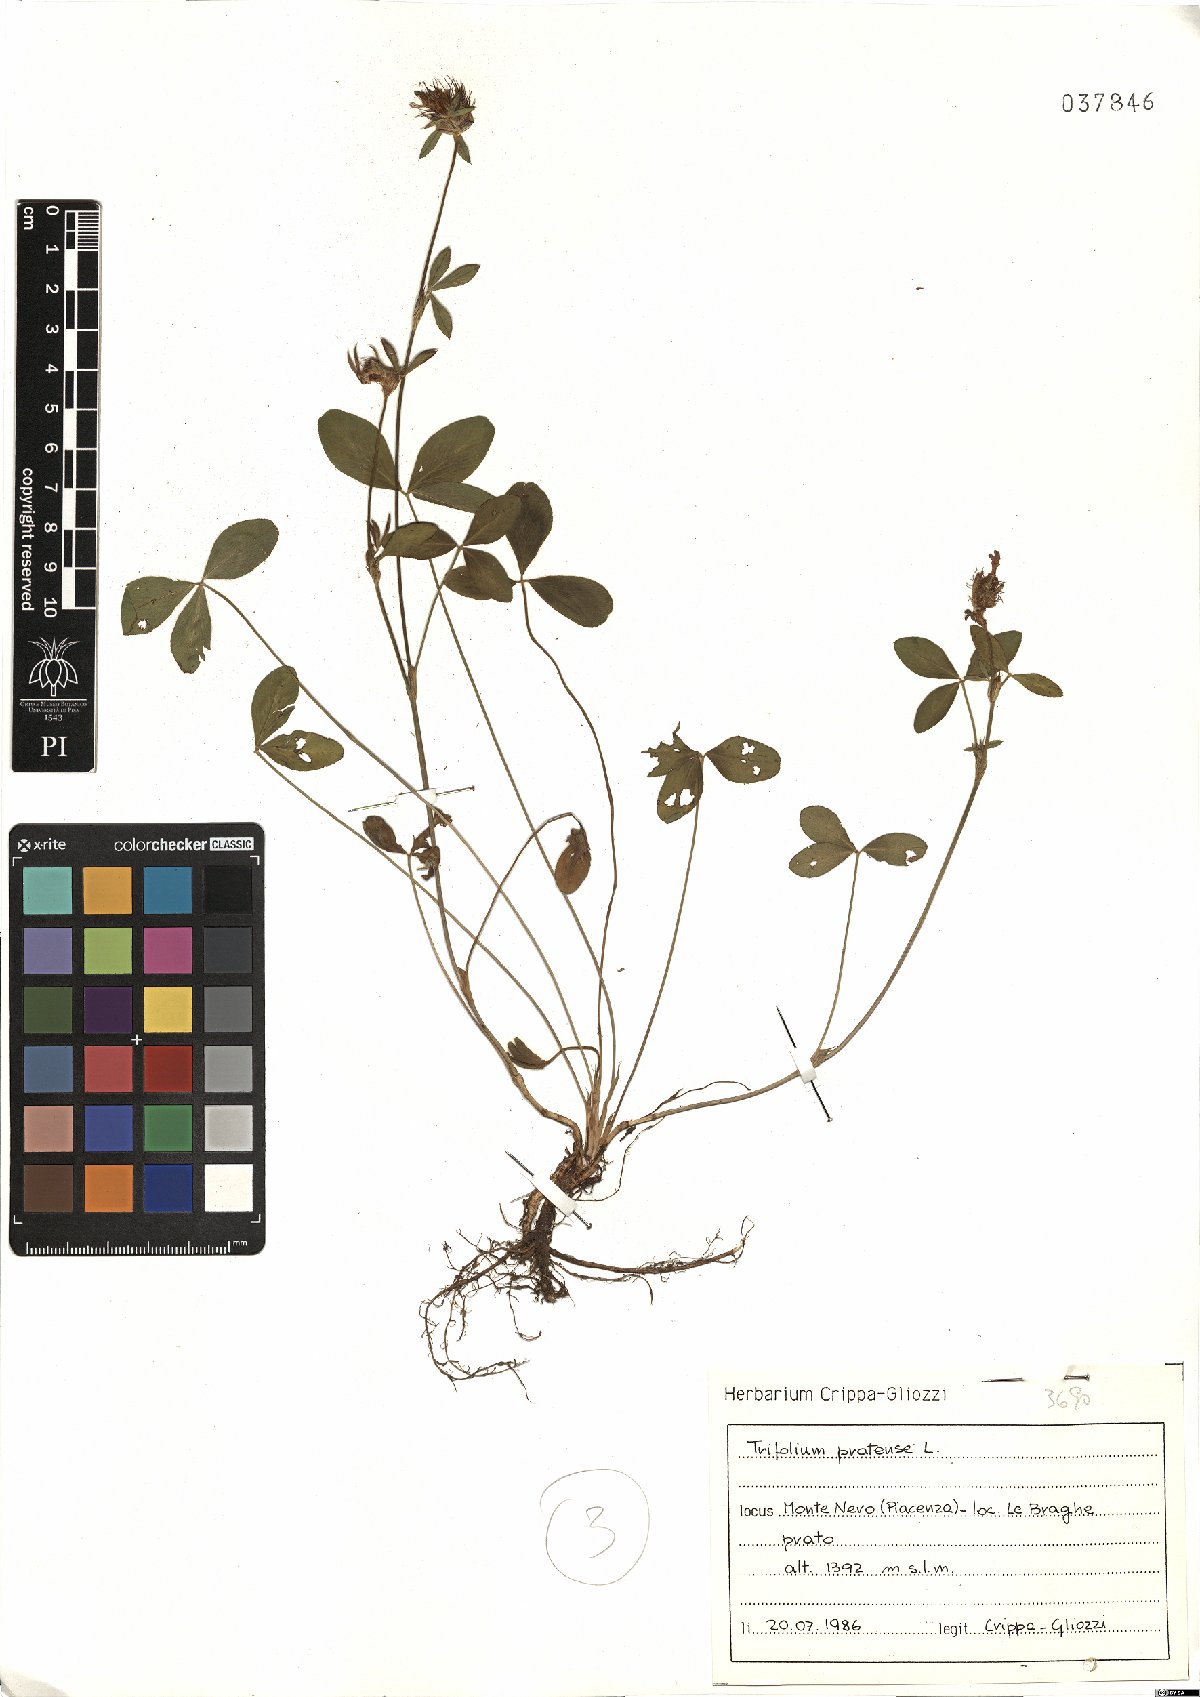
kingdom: Plantae
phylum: Tracheophyta
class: Magnoliopsida
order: Fabales
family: Fabaceae
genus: Trifolium
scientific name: Trifolium pratense
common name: Red clover
